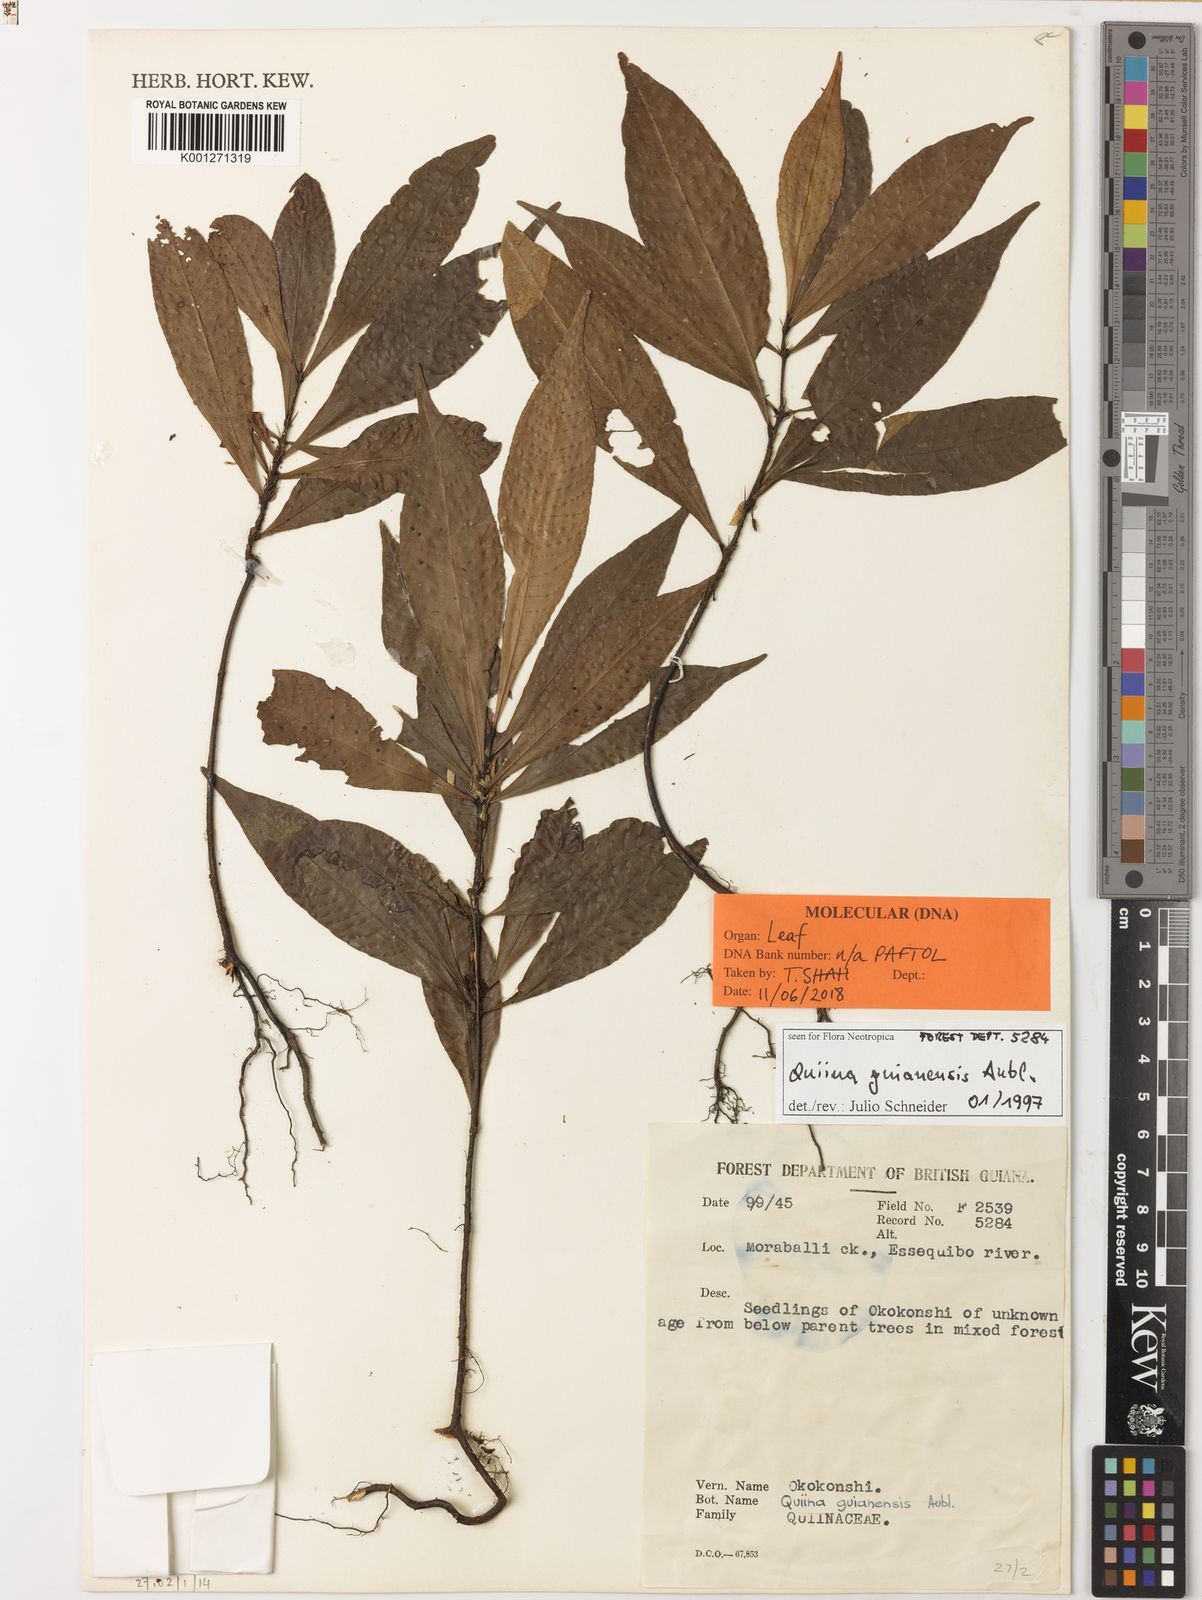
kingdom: Plantae
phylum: Tracheophyta
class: Magnoliopsida
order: Malpighiales
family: Quiinaceae
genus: Quiina
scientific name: Quiina guianensis
